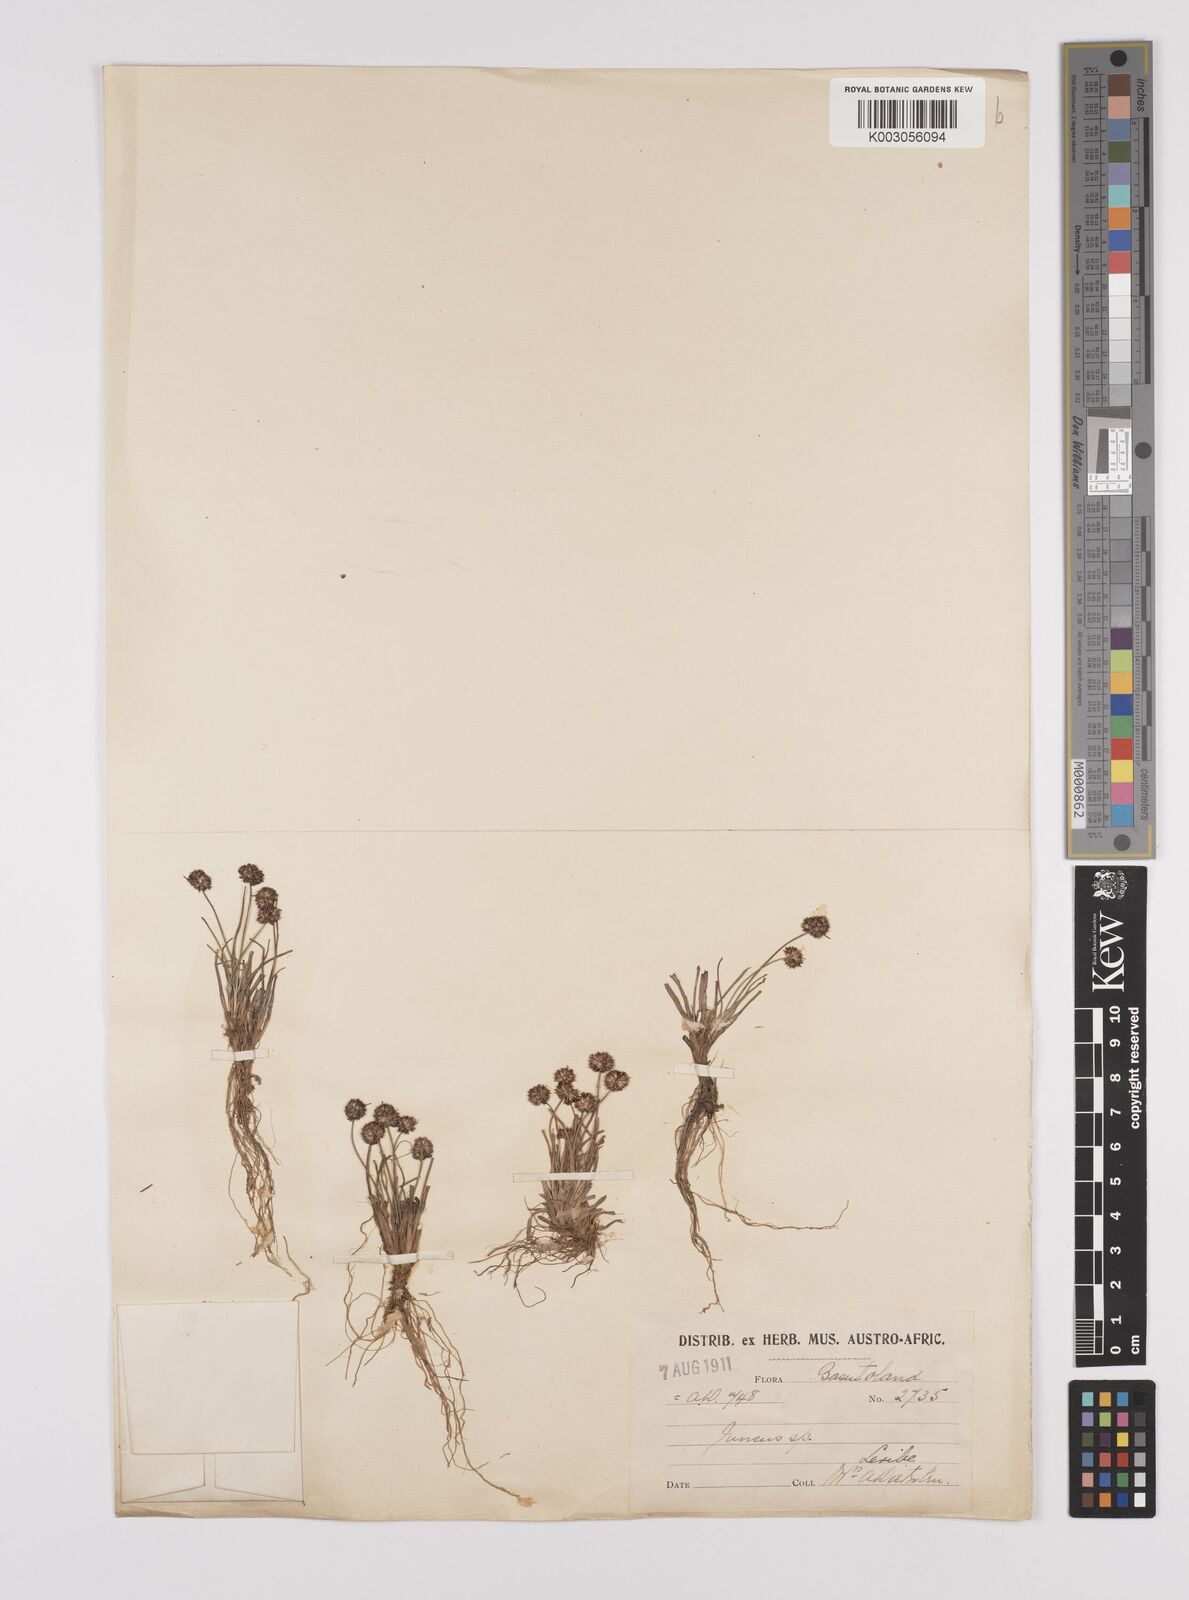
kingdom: Plantae
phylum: Tracheophyta
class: Liliopsida
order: Poales
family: Juncaceae
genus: Juncus
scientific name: Juncus dregeanus
